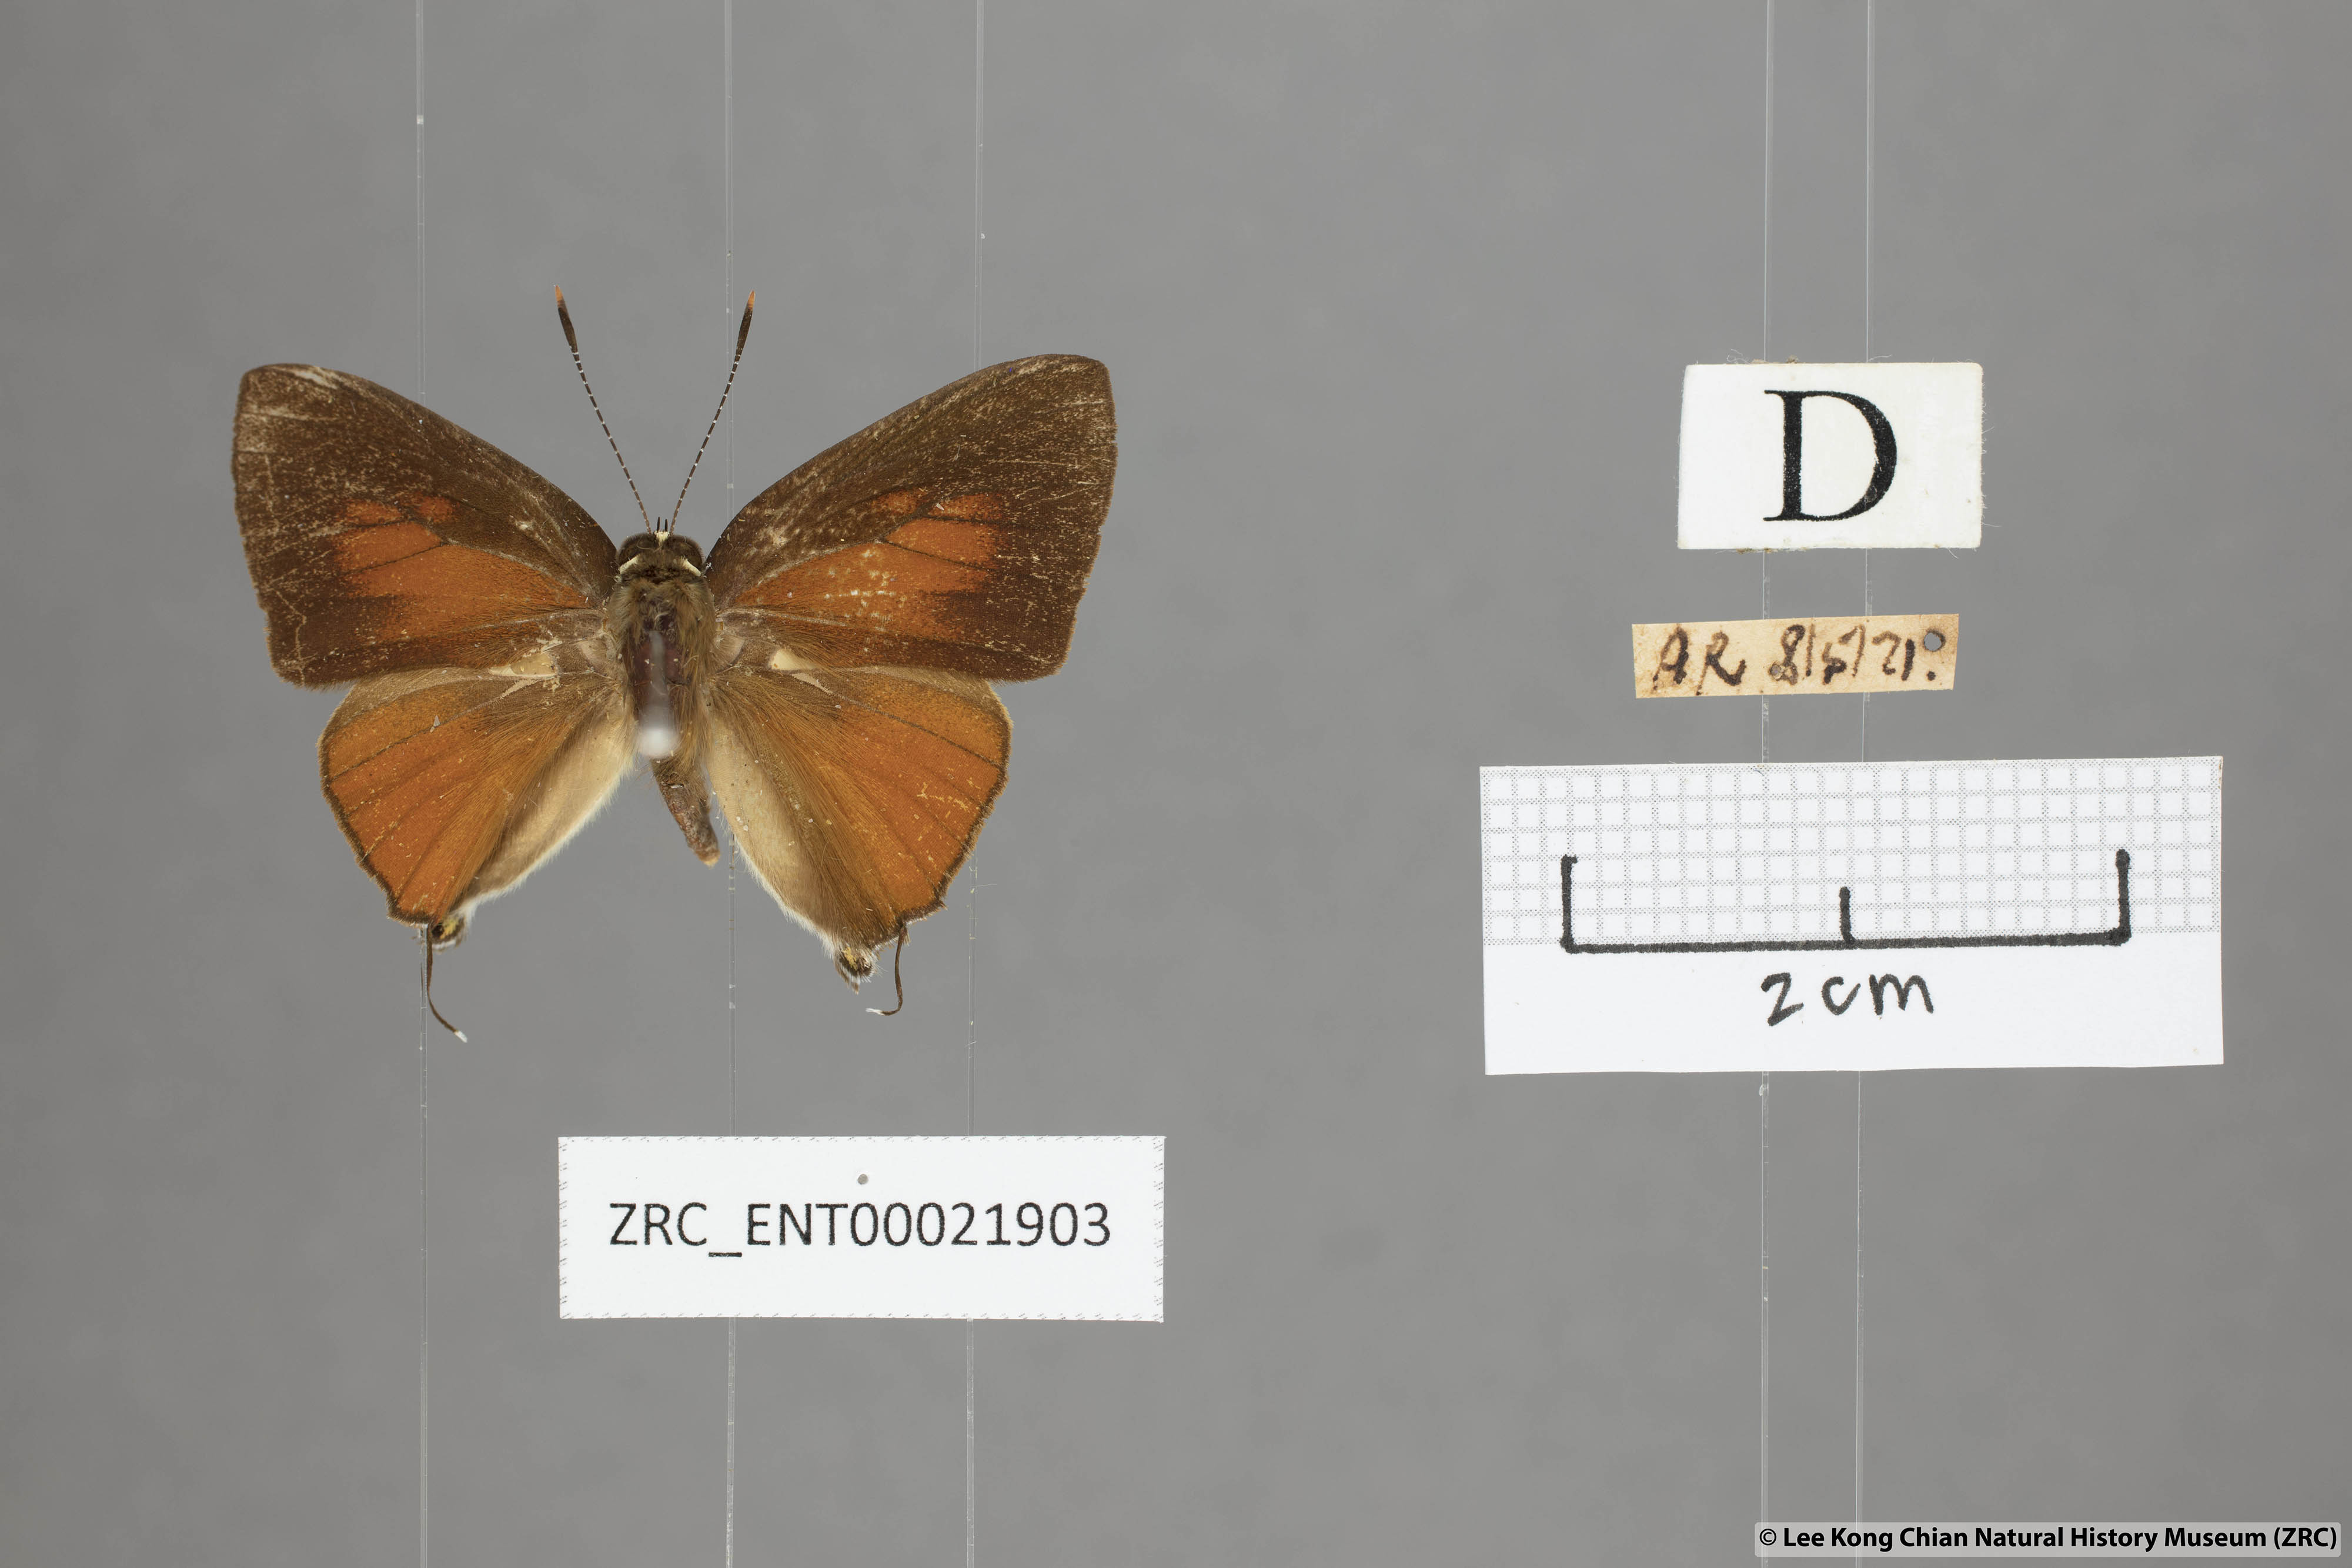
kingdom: Animalia
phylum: Arthropoda
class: Insecta
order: Lepidoptera
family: Lycaenidae
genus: Rapala
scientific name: Rapala suffusa
